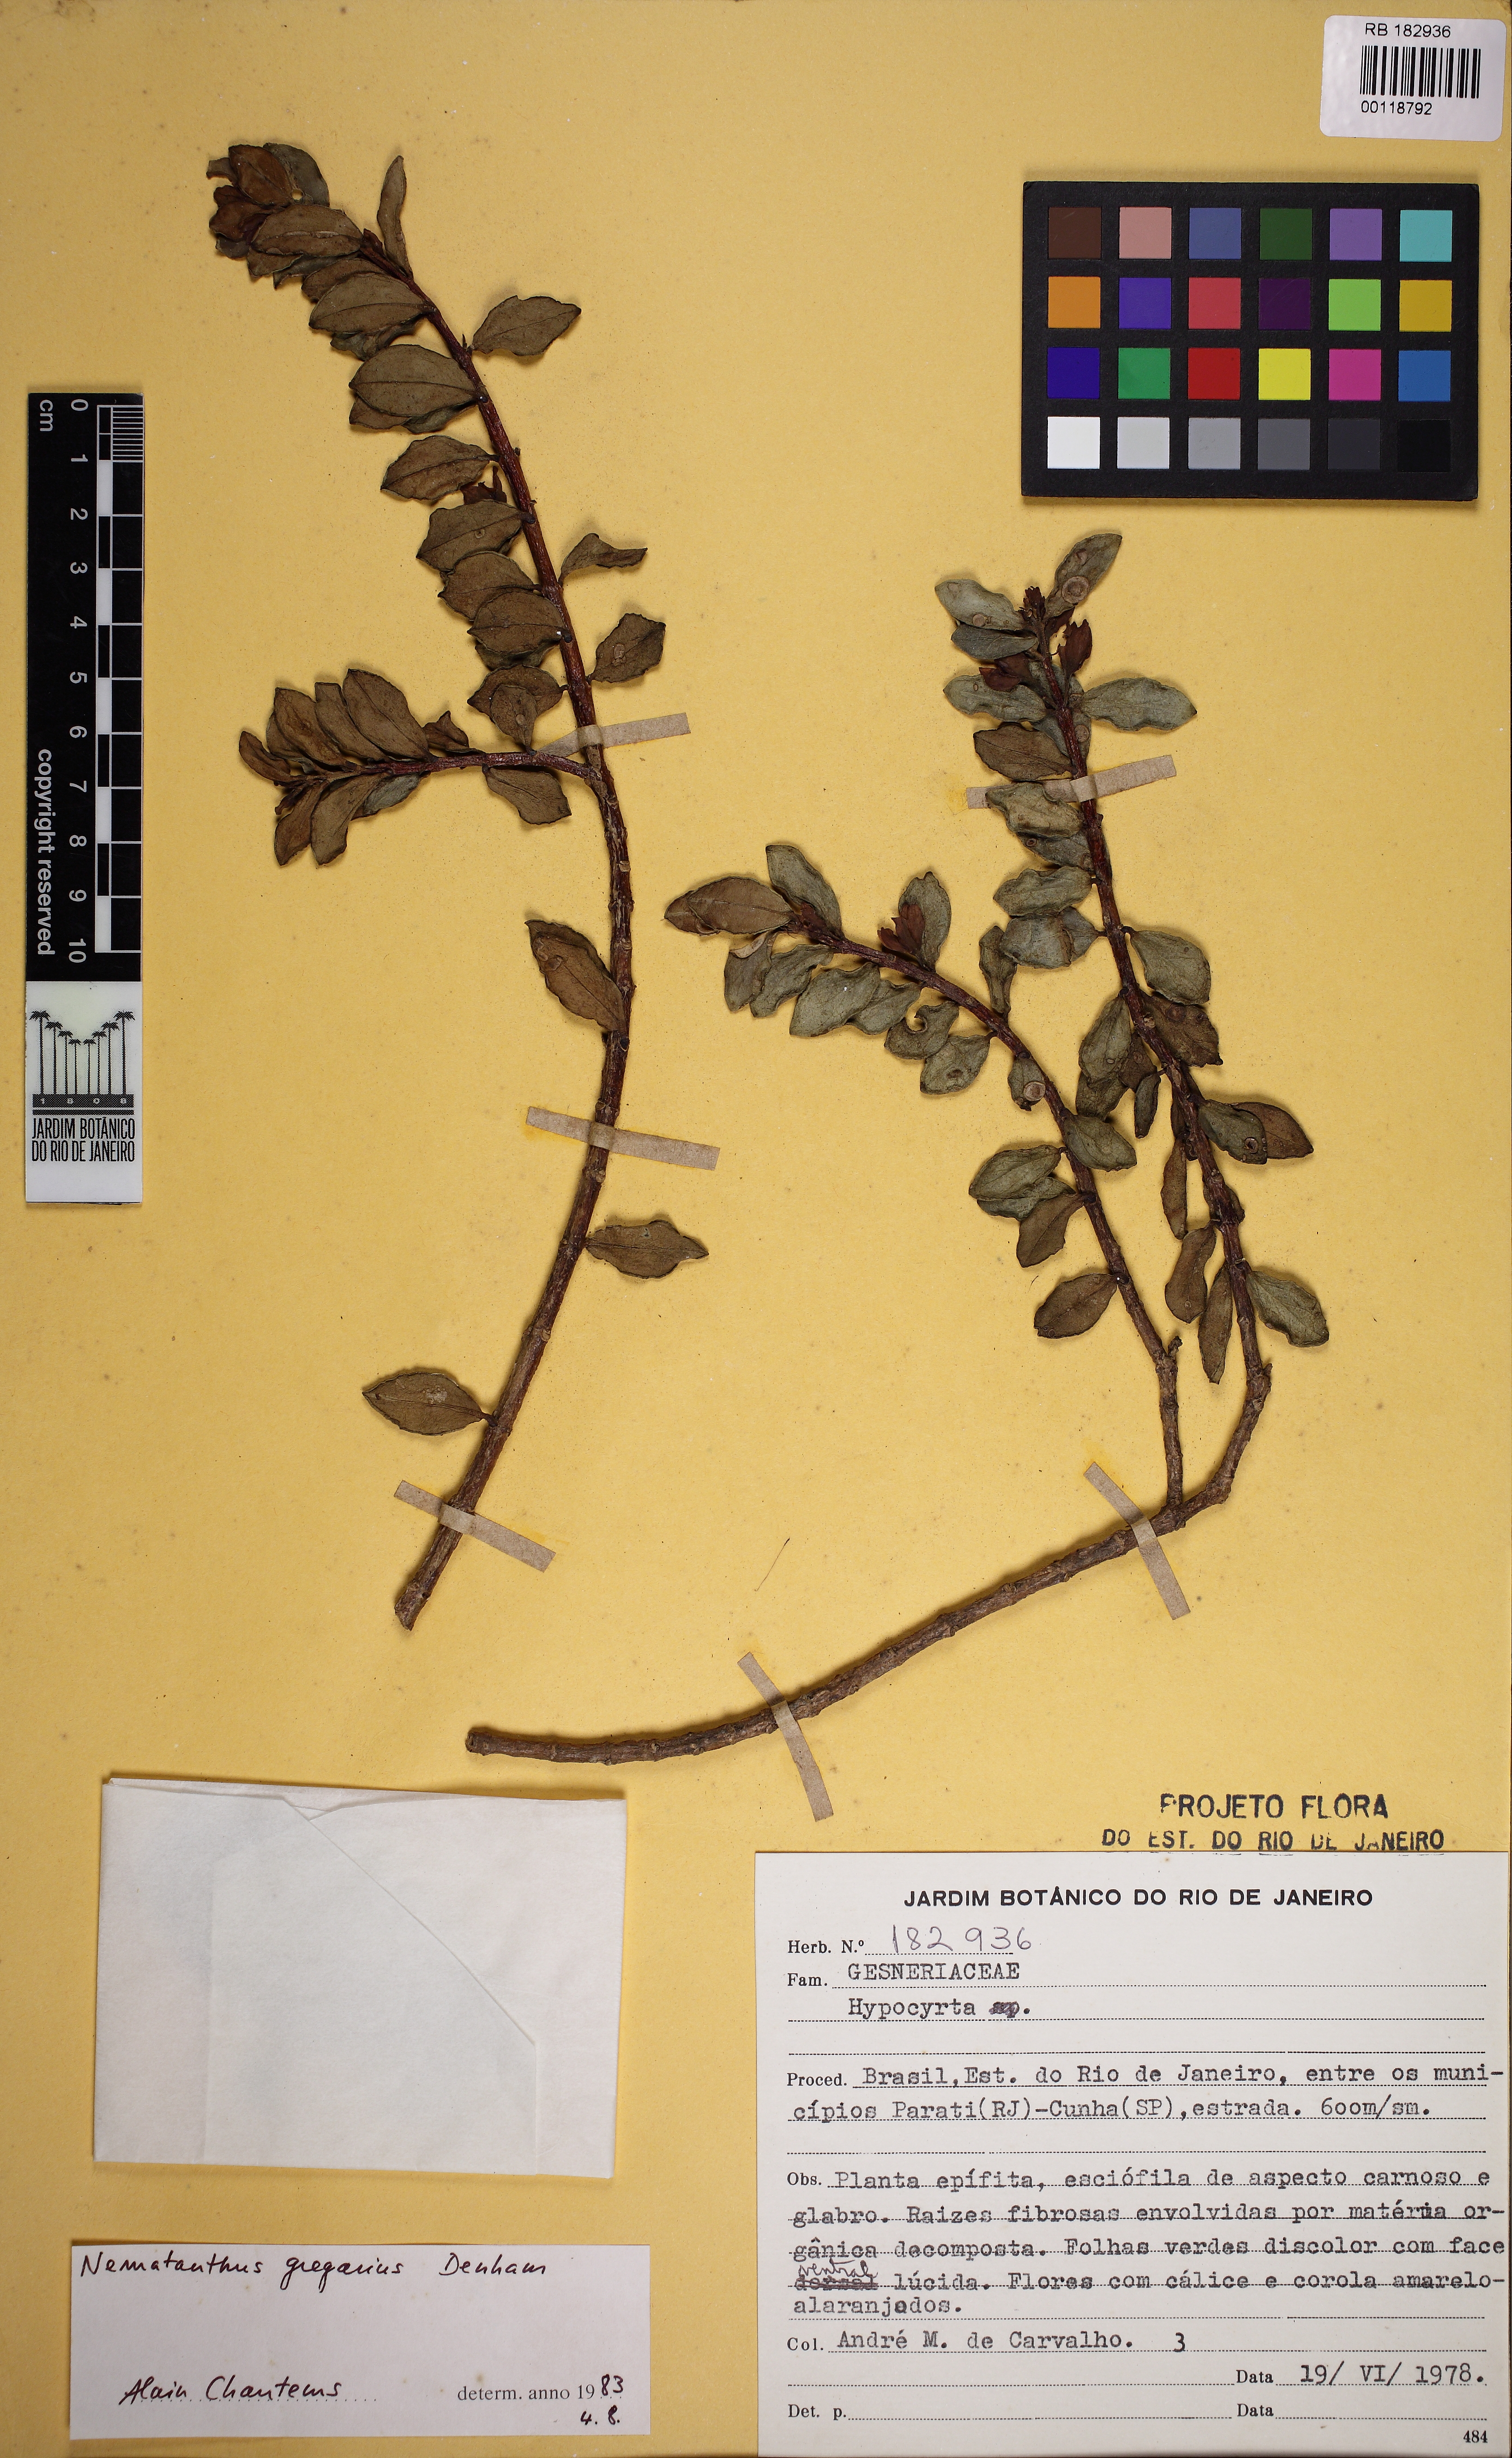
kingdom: Plantae
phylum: Tracheophyta
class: Magnoliopsida
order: Lamiales
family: Gesneriaceae
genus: Nematanthus
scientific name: Nematanthus gregarius
